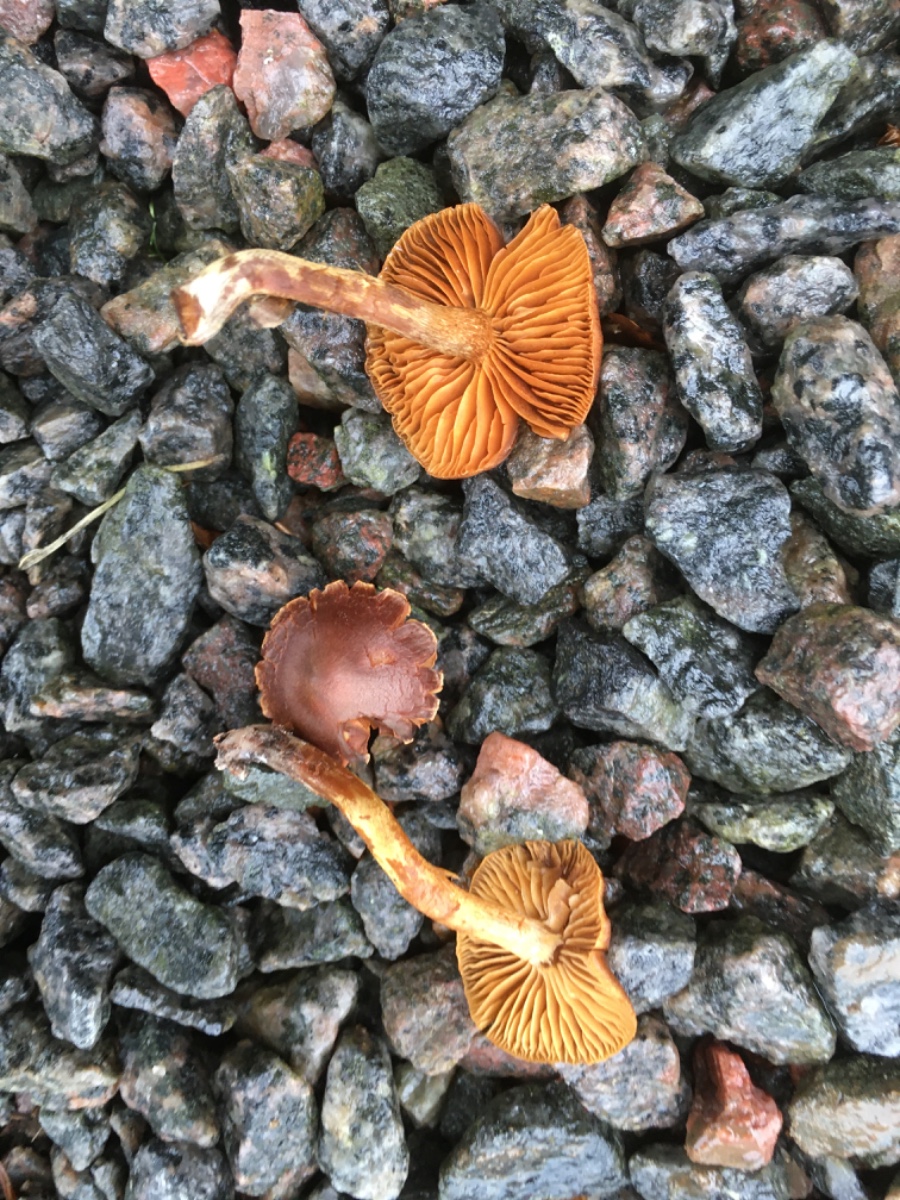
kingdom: Fungi
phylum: Basidiomycota
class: Agaricomycetes
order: Agaricales
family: Cortinariaceae
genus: Cortinarius
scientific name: Cortinarius
